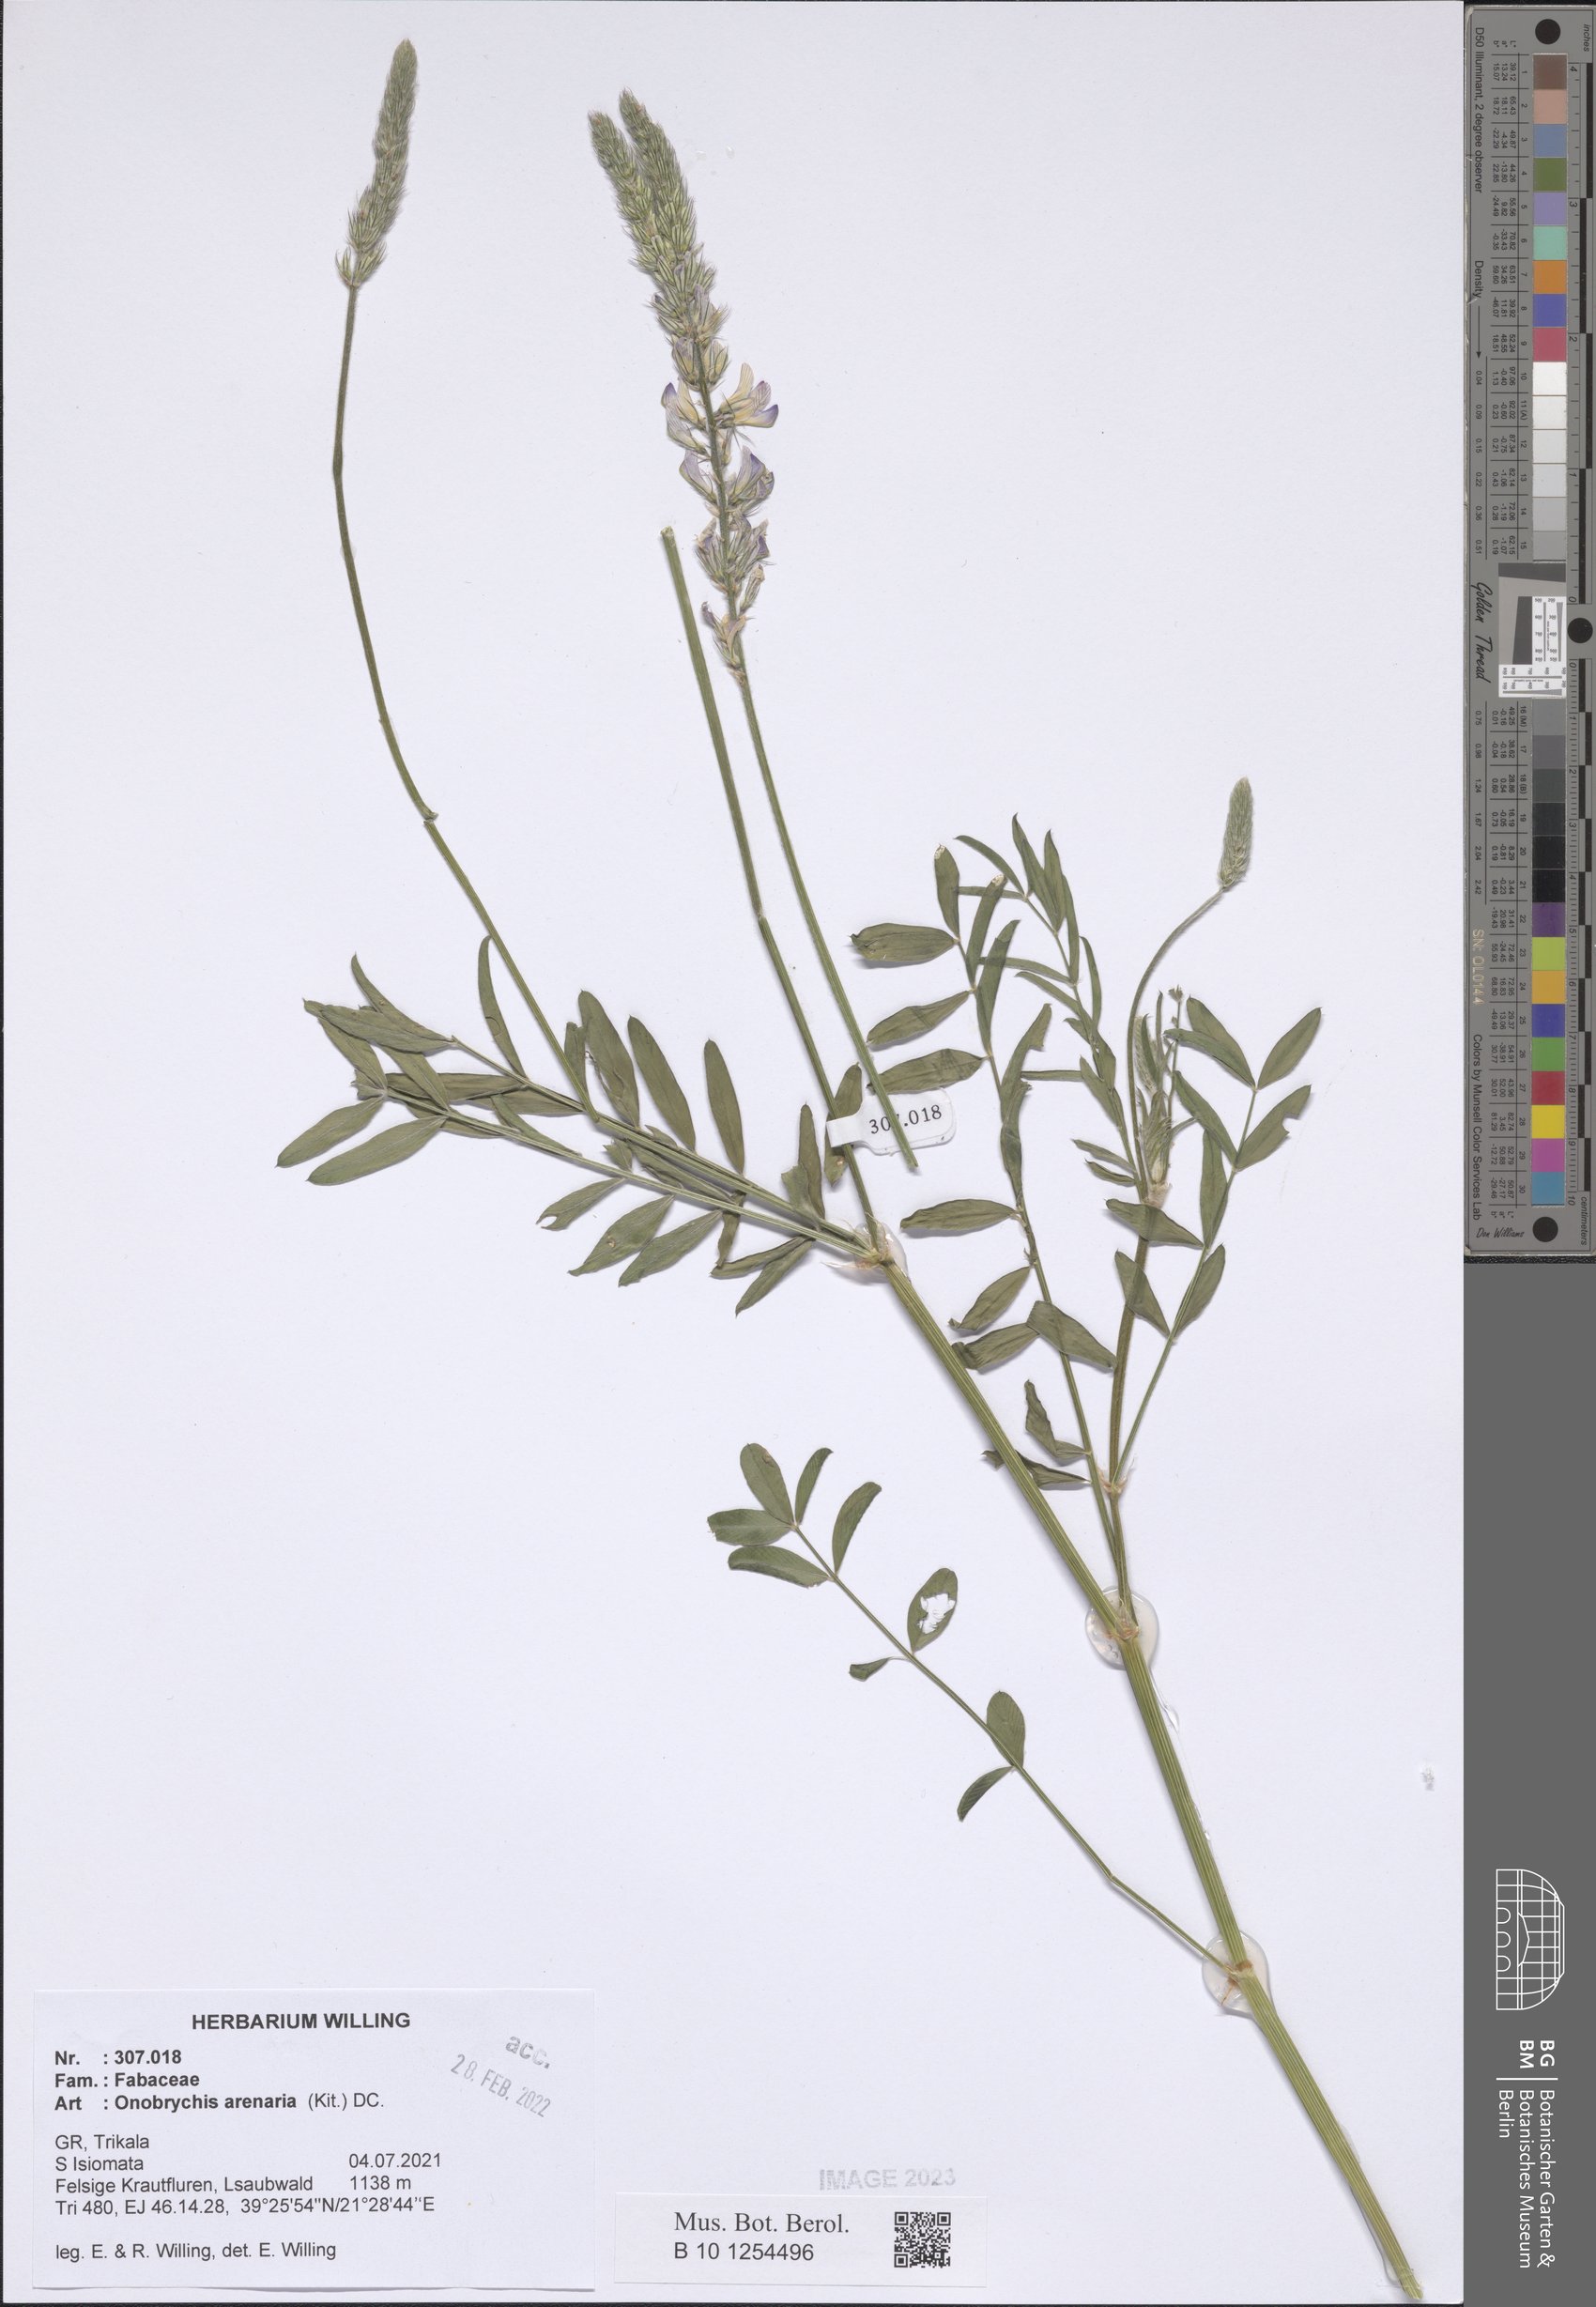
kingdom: Plantae
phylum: Tracheophyta
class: Magnoliopsida
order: Fabales
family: Fabaceae
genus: Onobrychis
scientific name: Onobrychis arenaria
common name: Sand esparcet
